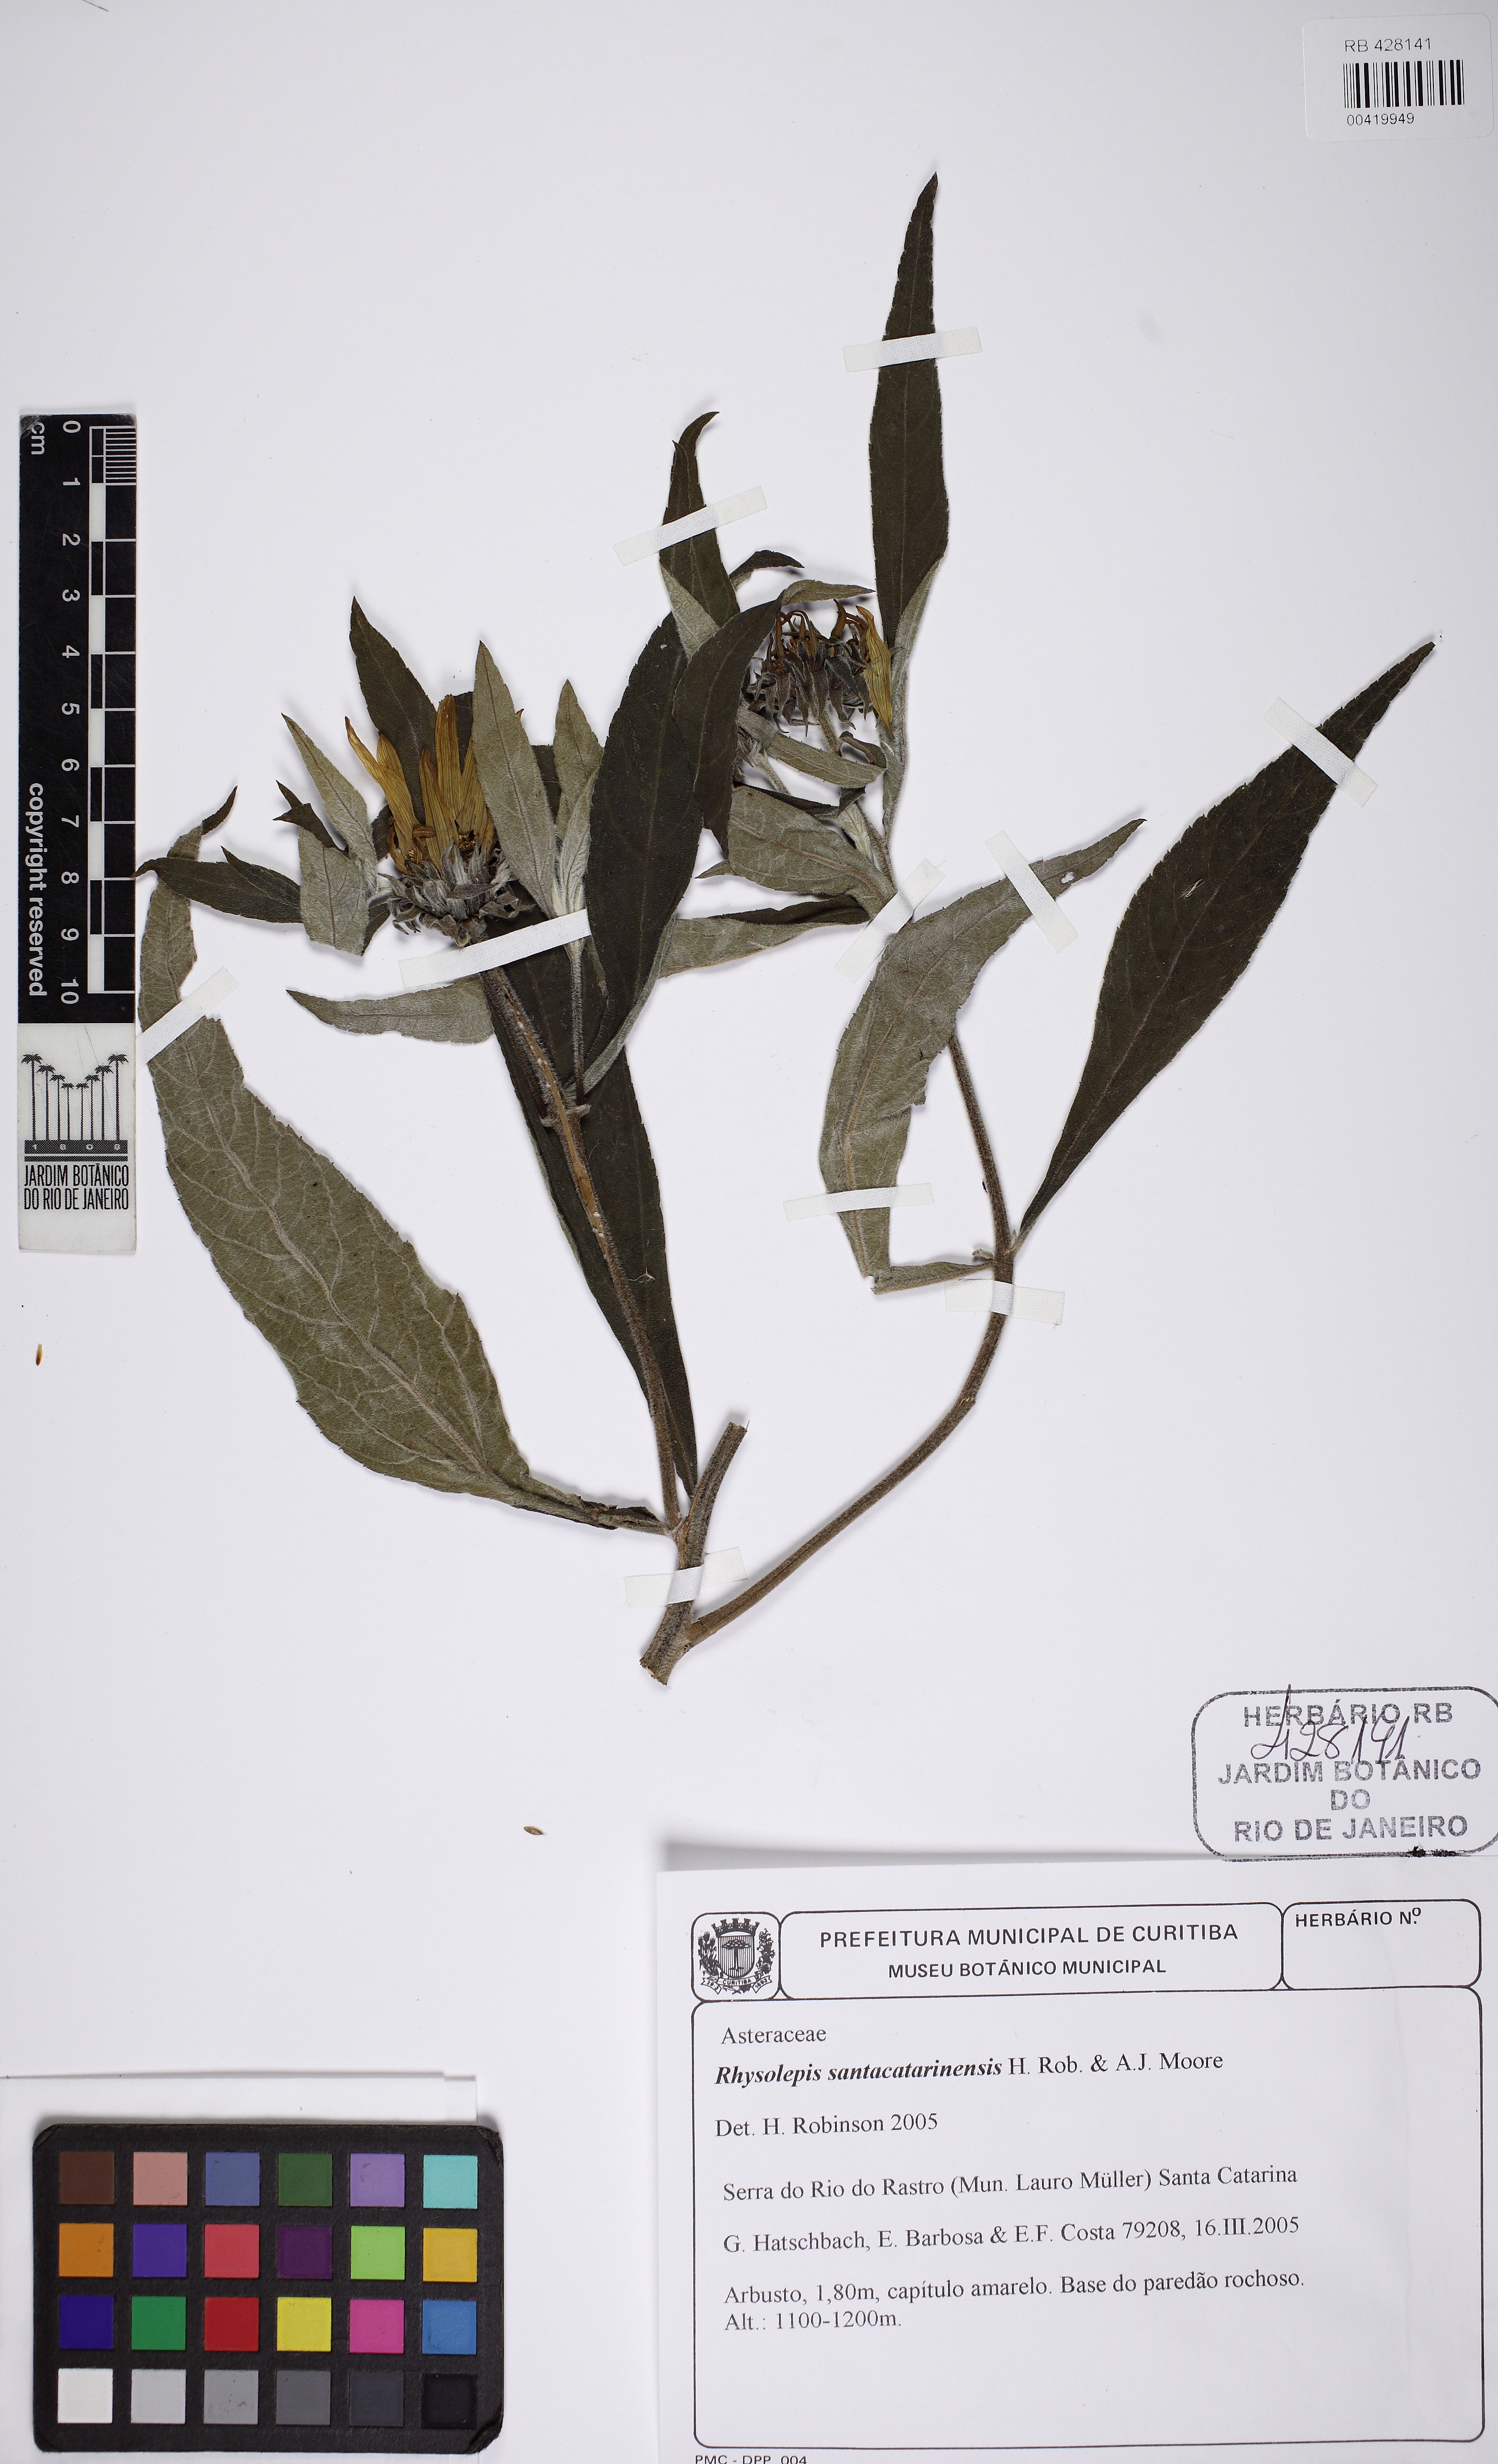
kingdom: Plantae
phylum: Tracheophyta
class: Magnoliopsida
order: Asterales
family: Asteraceae
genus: Aldama
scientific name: Aldama santacatarinensis
